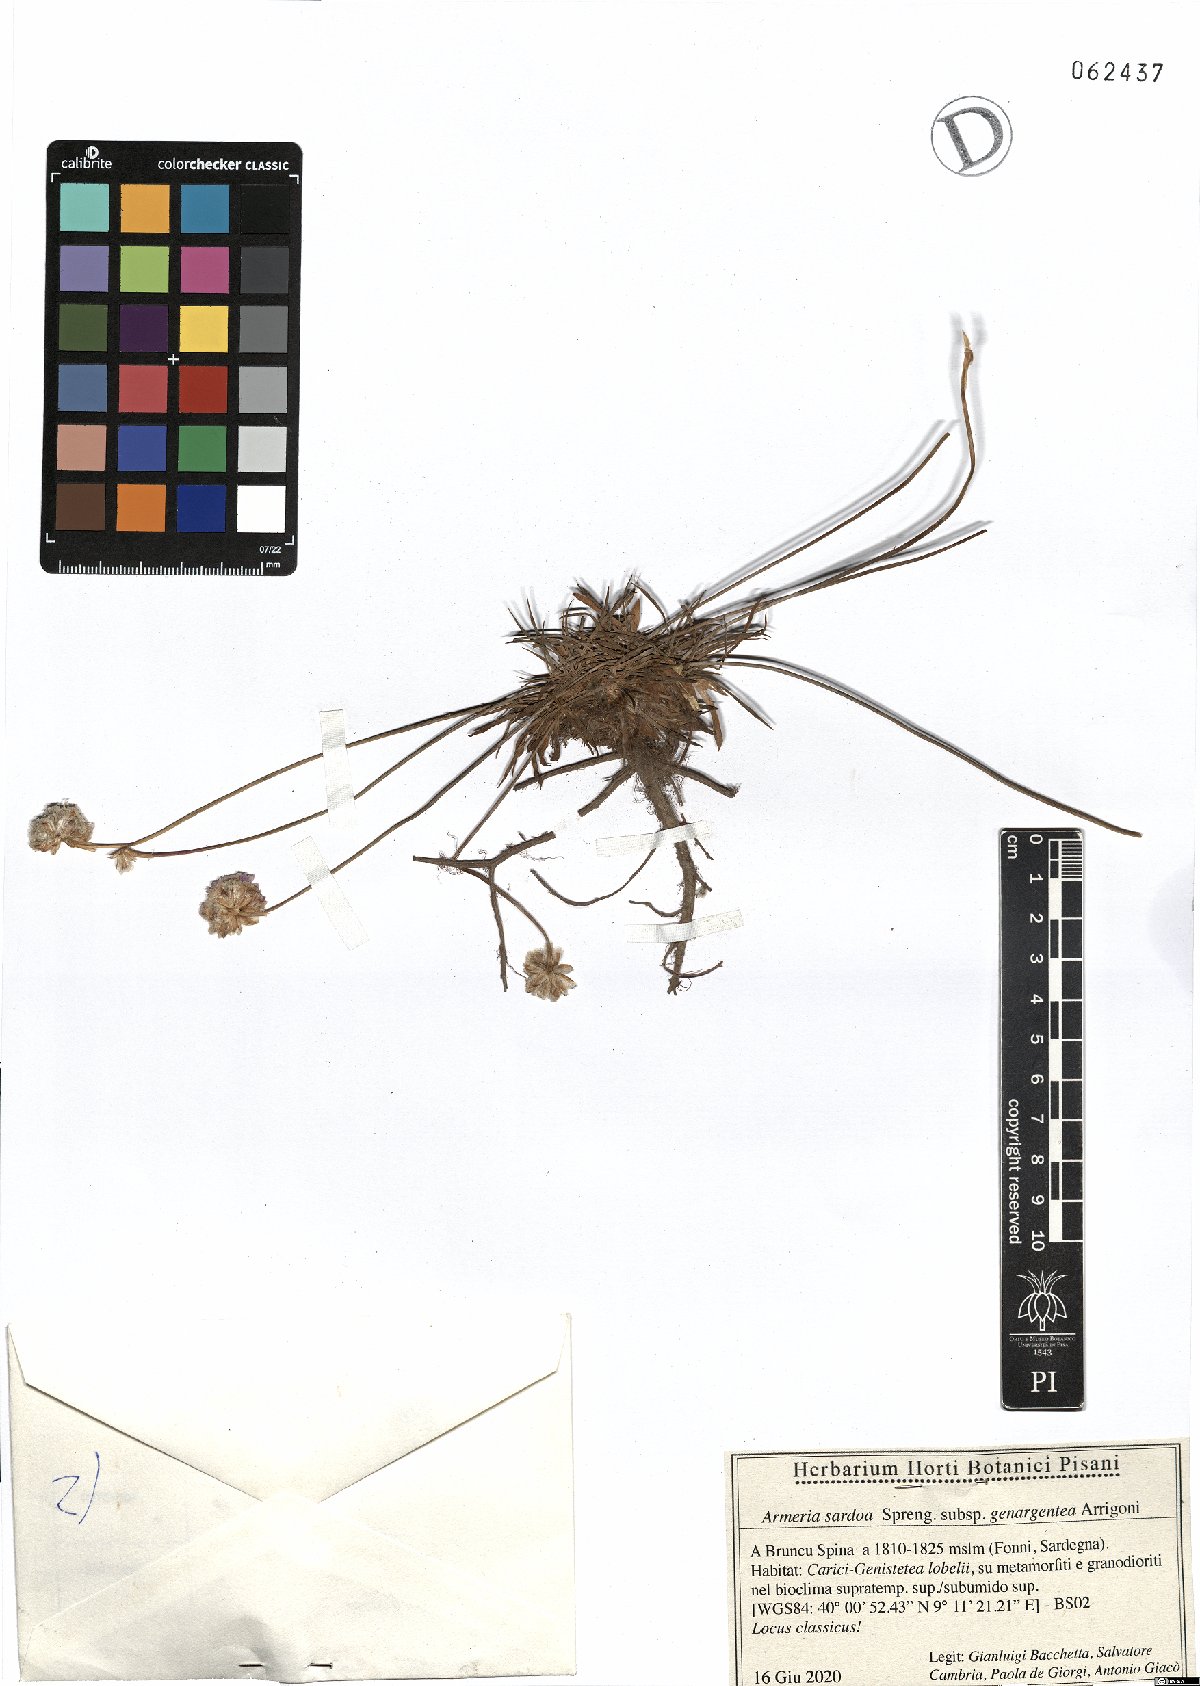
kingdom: Plantae
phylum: Tracheophyta
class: Magnoliopsida
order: Caryophyllales
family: Plumbaginaceae
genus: Armeria
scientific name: Armeria sardoa
